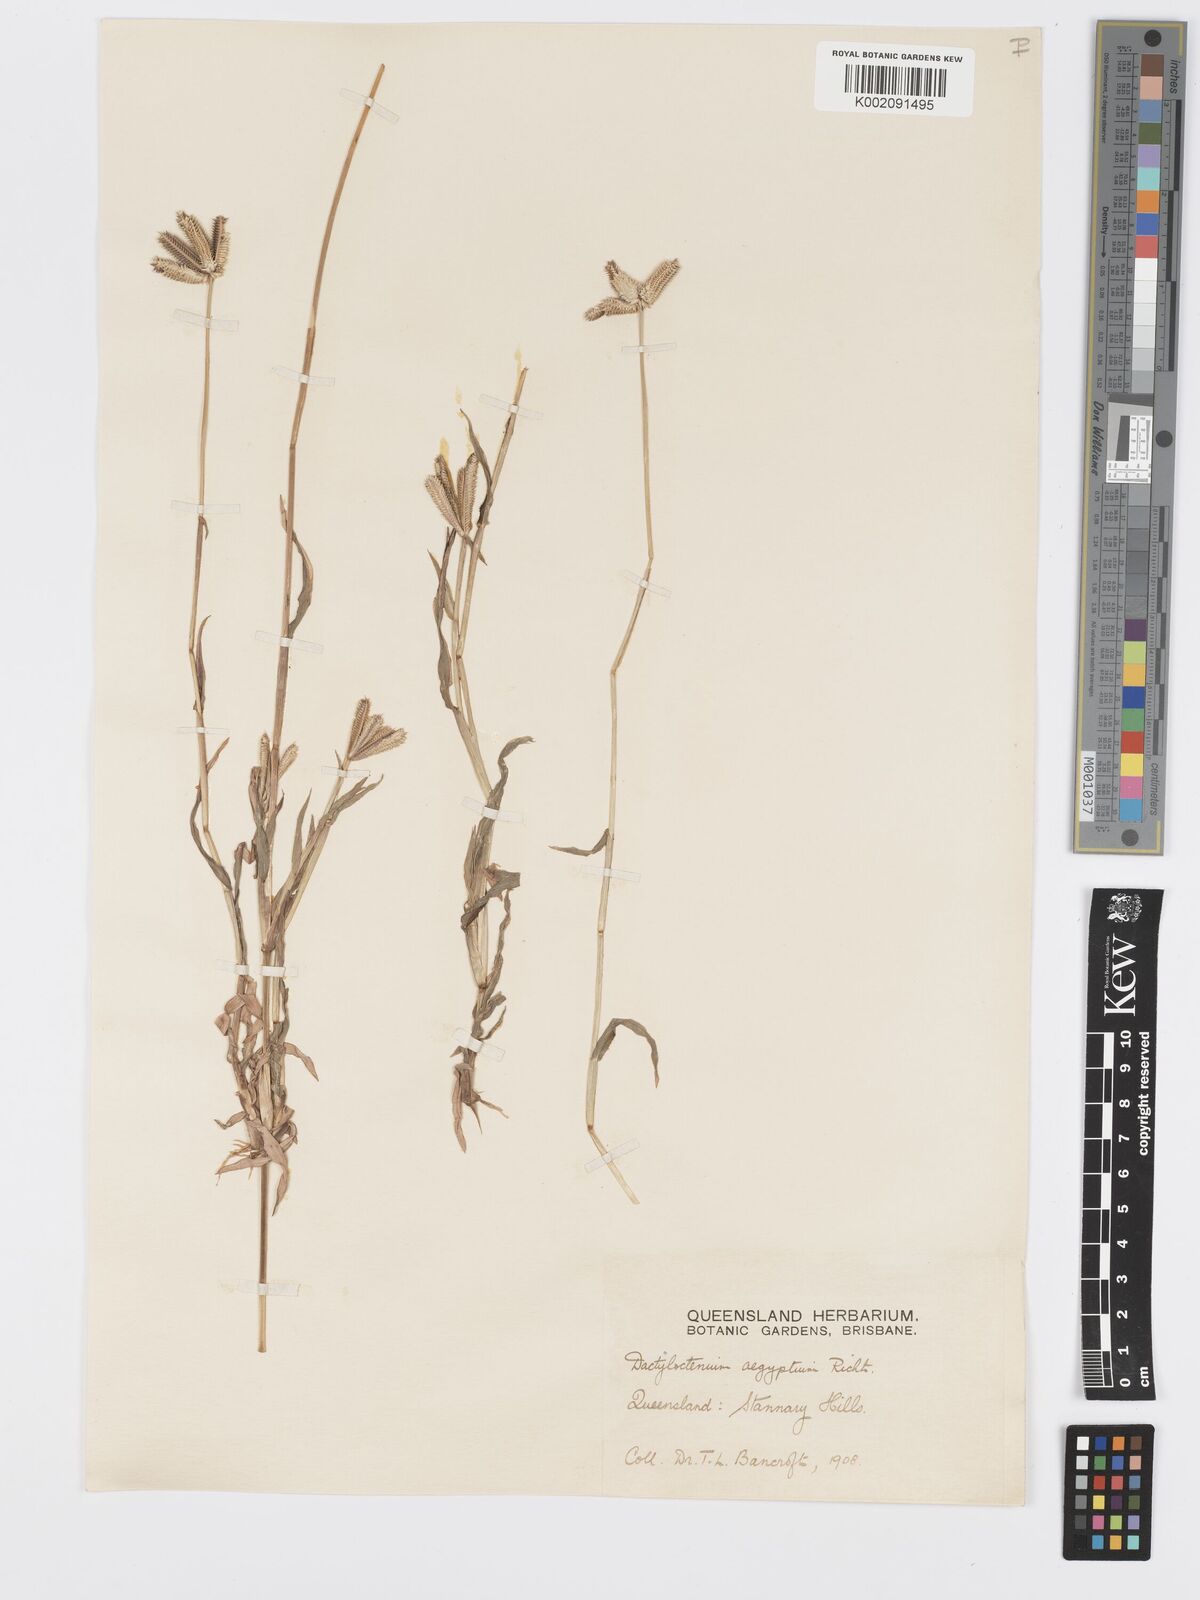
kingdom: Plantae
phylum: Tracheophyta
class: Liliopsida
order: Poales
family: Poaceae
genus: Dactyloctenium
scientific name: Dactyloctenium aegyptium
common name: Egyptian grass
